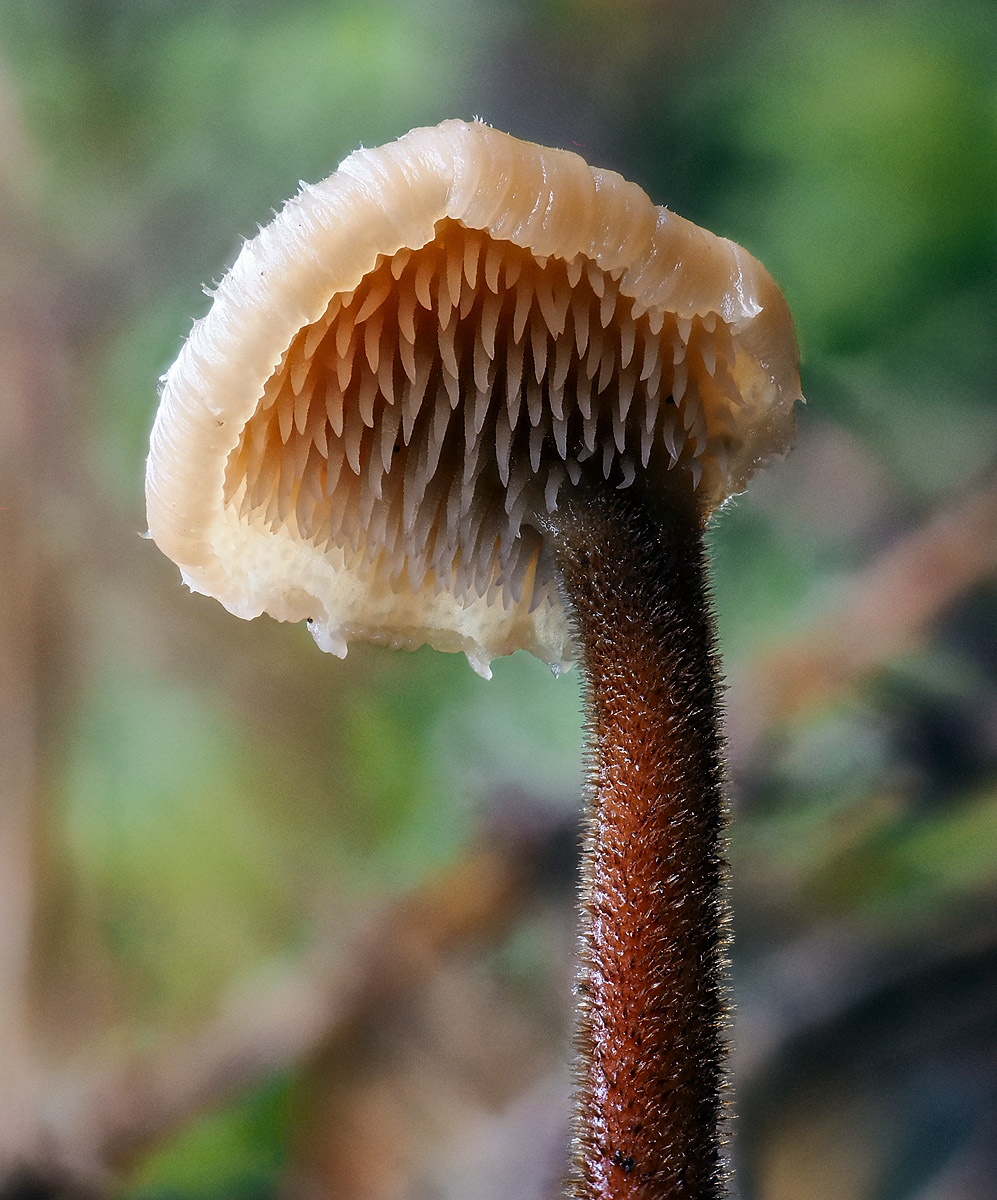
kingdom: Fungi
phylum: Basidiomycota
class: Agaricomycetes
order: Russulales
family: Auriscalpiaceae
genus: Auriscalpium
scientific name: Auriscalpium vulgare
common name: koglepigsvamp
